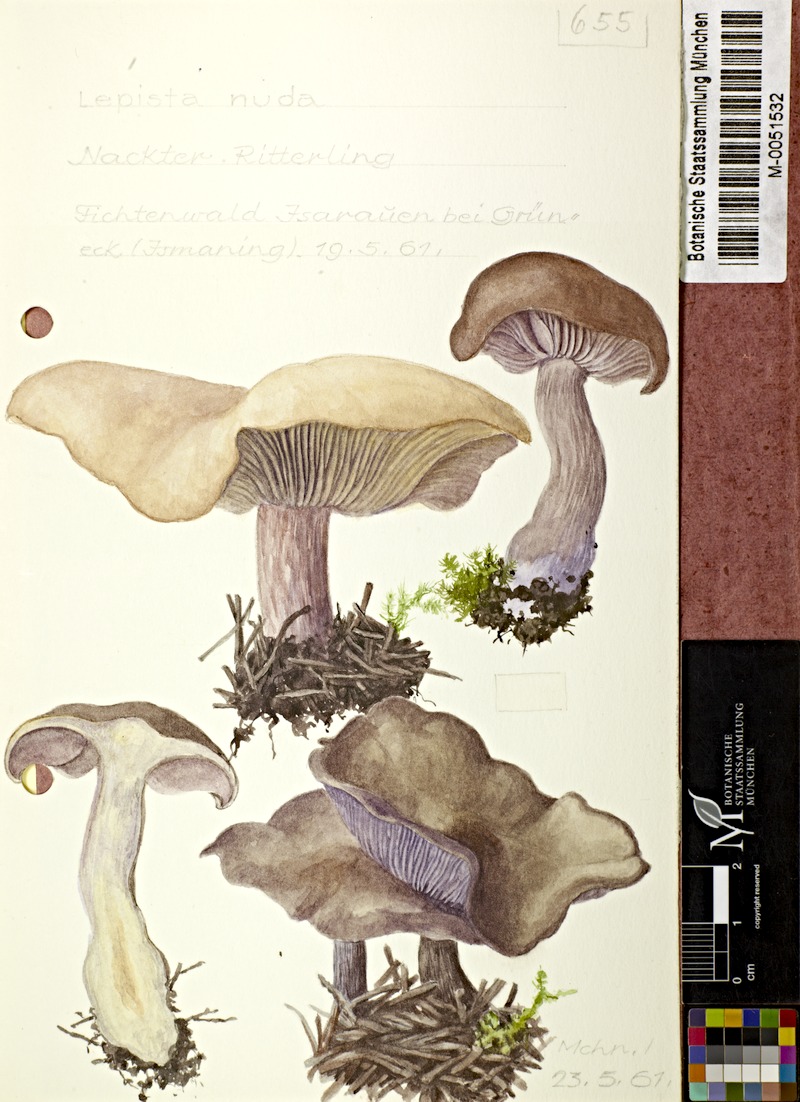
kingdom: Fungi
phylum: Basidiomycota
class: Agaricomycetes
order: Agaricales
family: Tricholomataceae
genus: Lepista
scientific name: Lepista nuda
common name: Wood blewit
